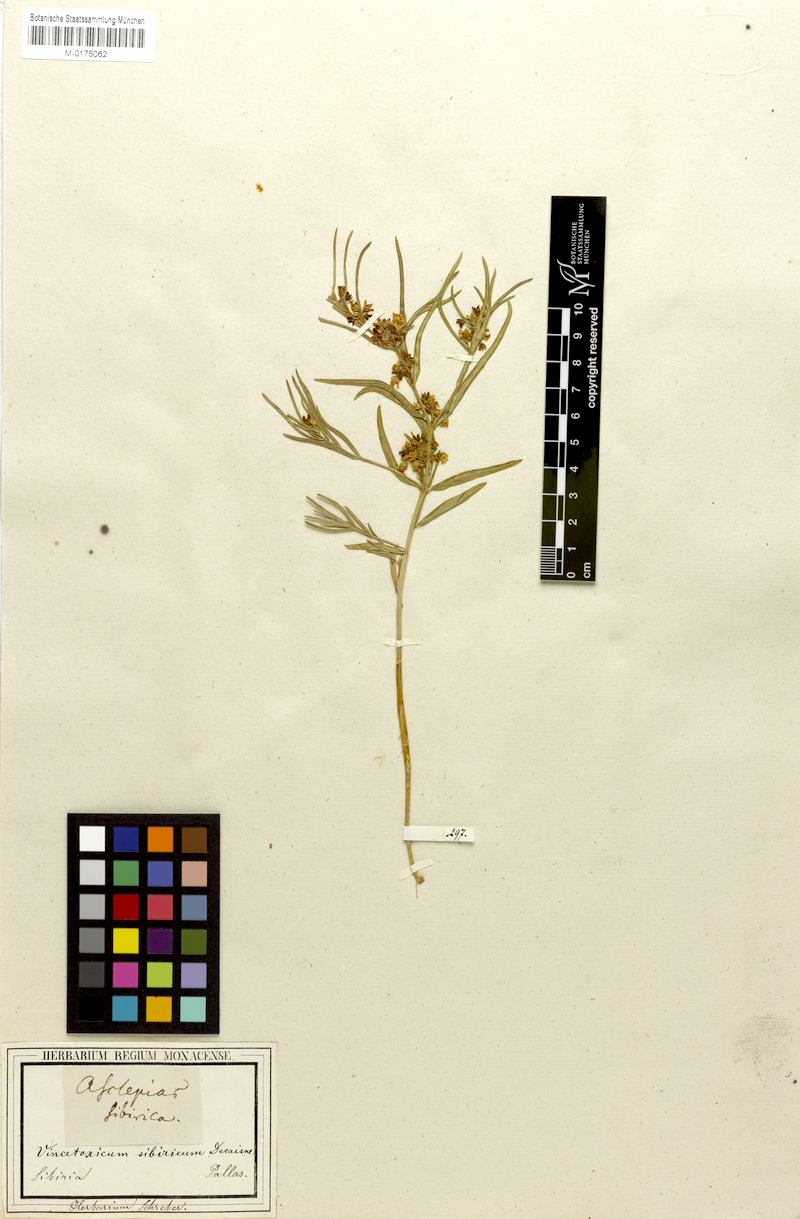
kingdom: Plantae
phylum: Tracheophyta
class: Magnoliopsida
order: Gentianales
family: Apocynaceae
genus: Cynanchum
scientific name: Cynanchum thesioides
